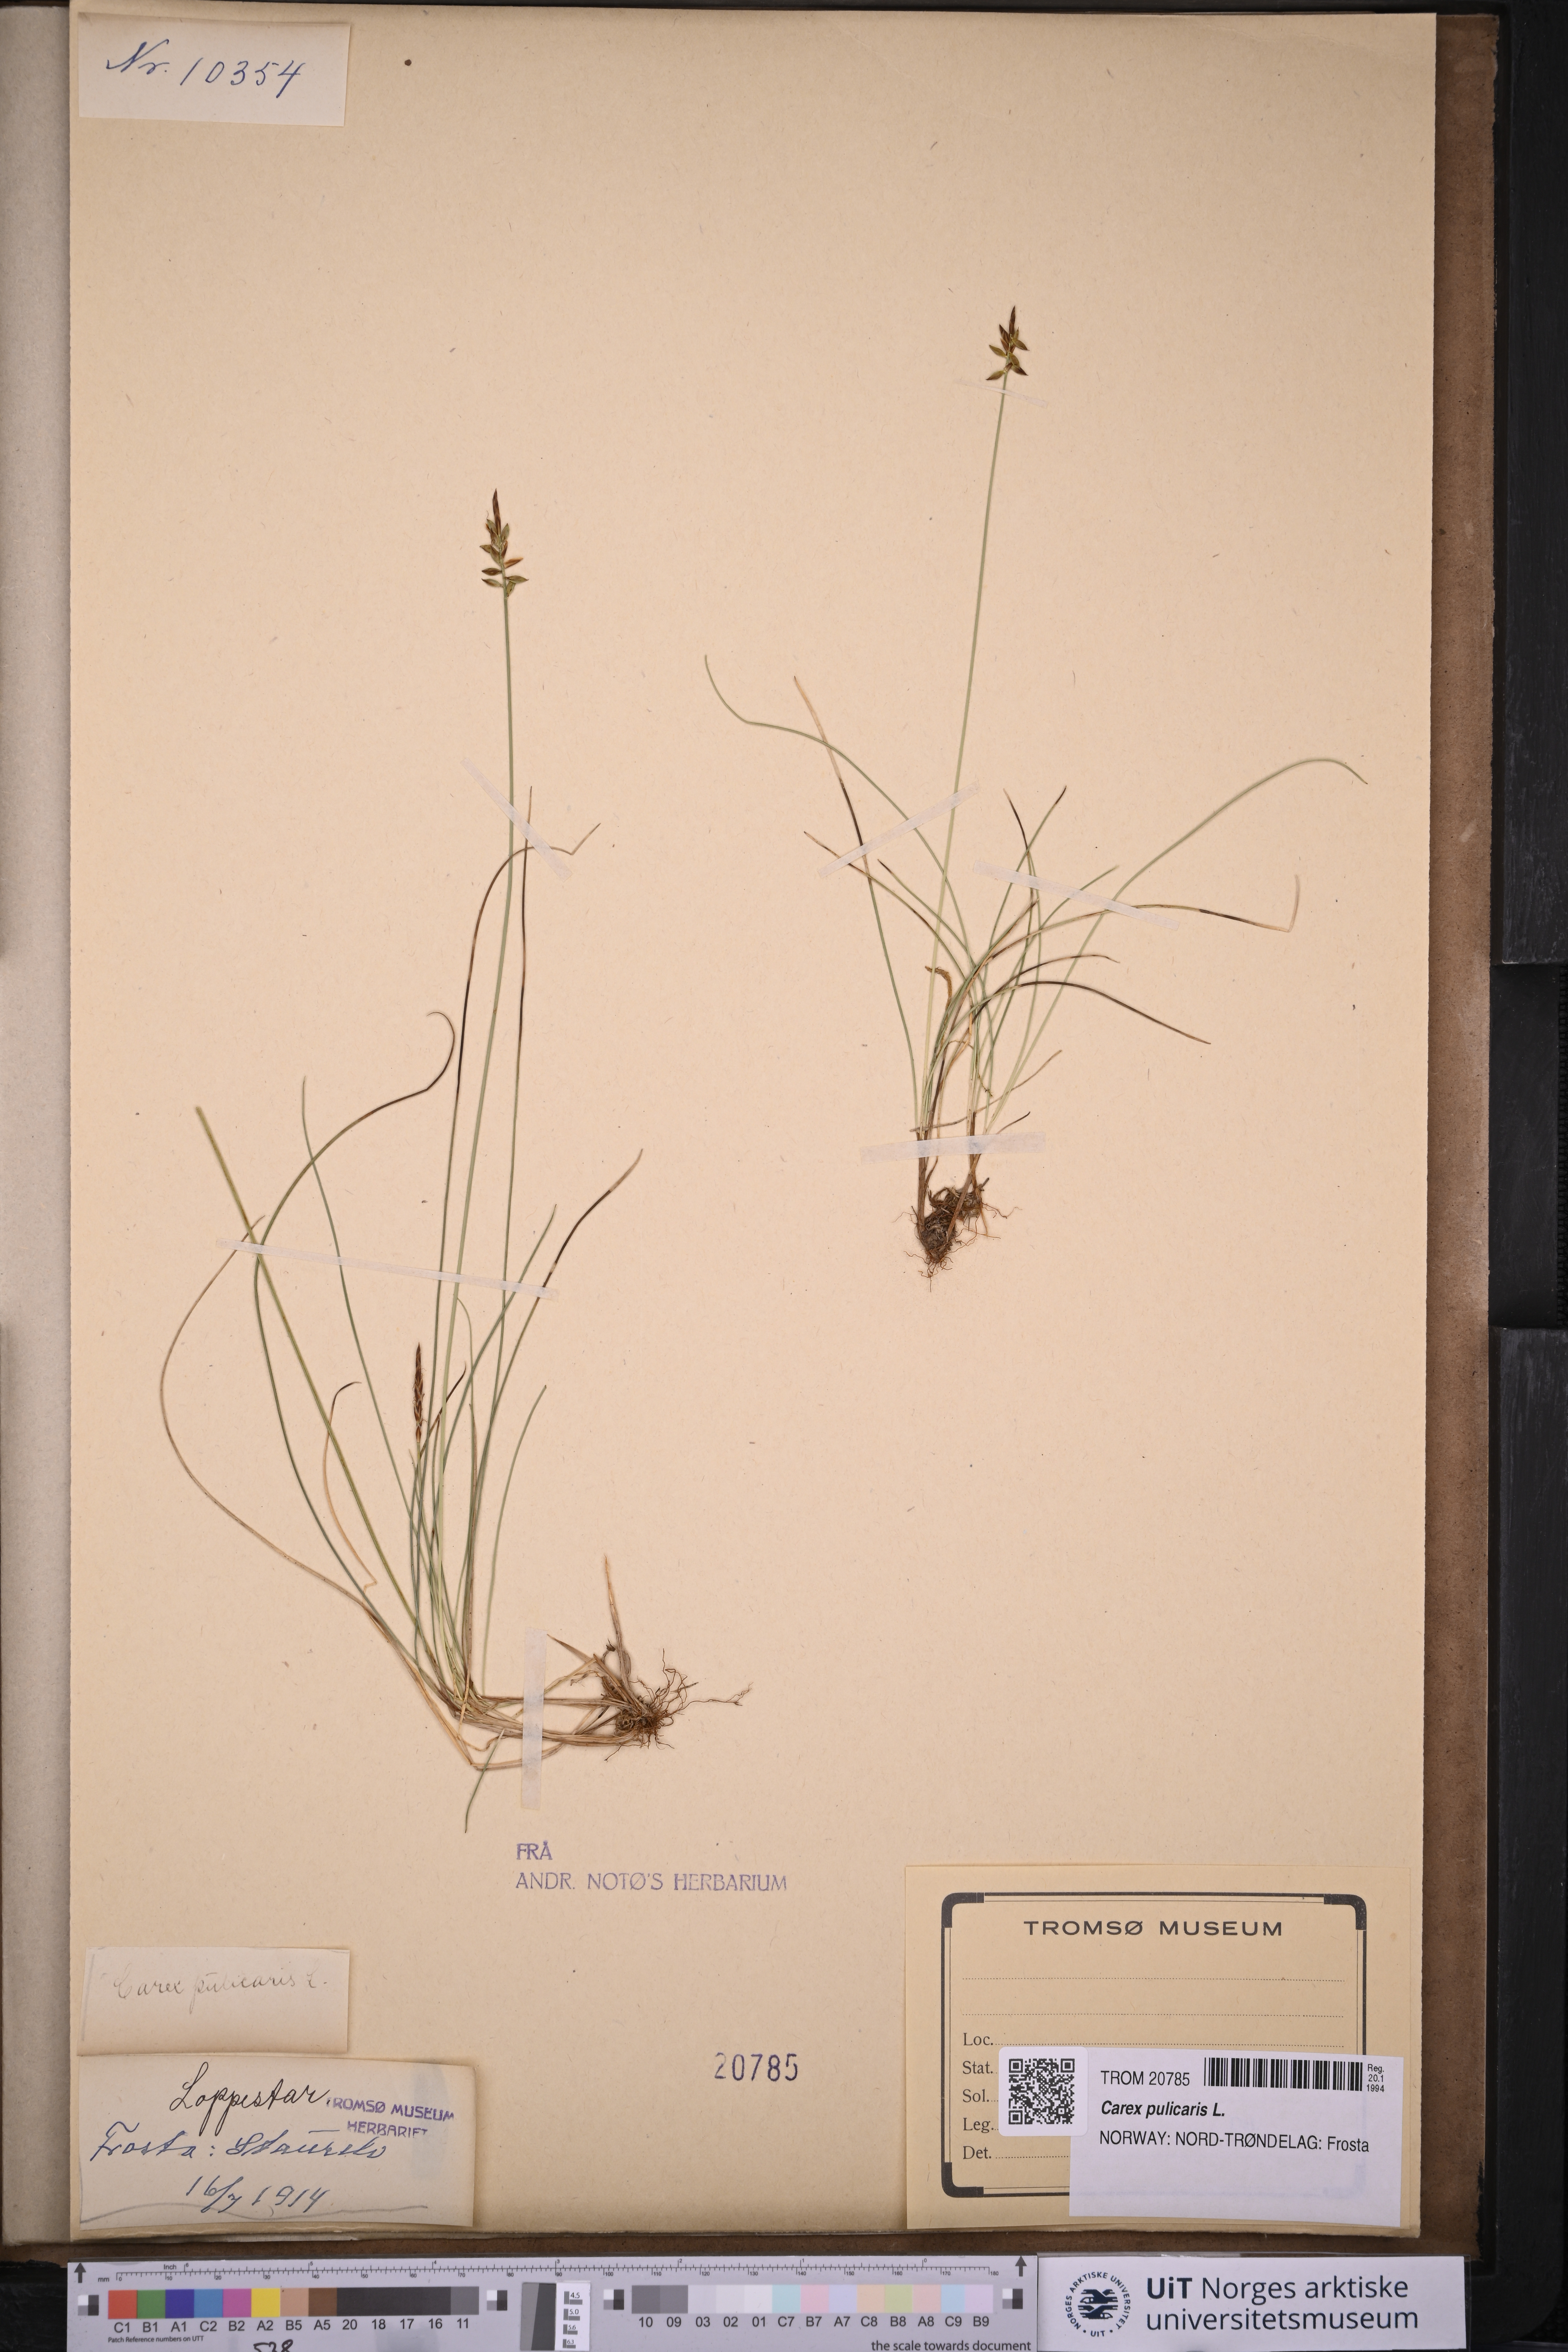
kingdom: Plantae
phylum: Tracheophyta
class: Liliopsida
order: Poales
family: Cyperaceae
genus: Carex
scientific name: Carex pulicaris
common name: Flea sedge
